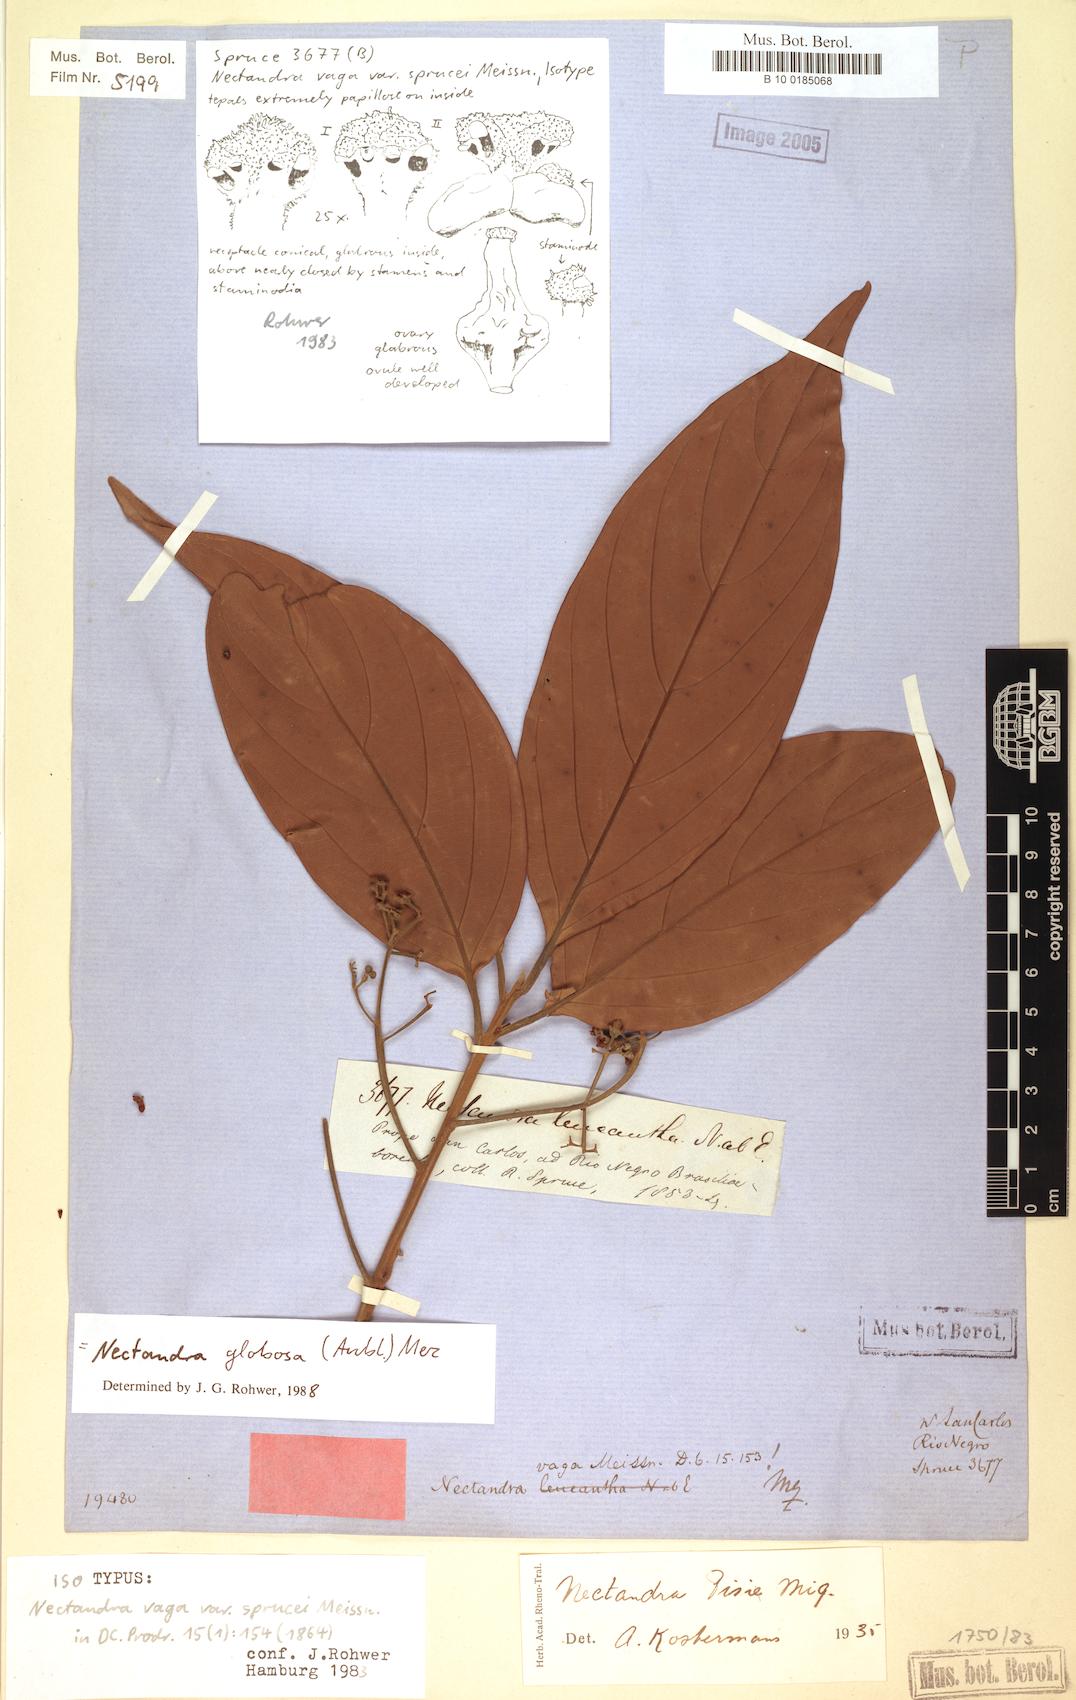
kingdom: Plantae
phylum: Tracheophyta
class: Magnoliopsida
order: Laurales
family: Lauraceae
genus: Nectandra
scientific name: Nectandra globosa
